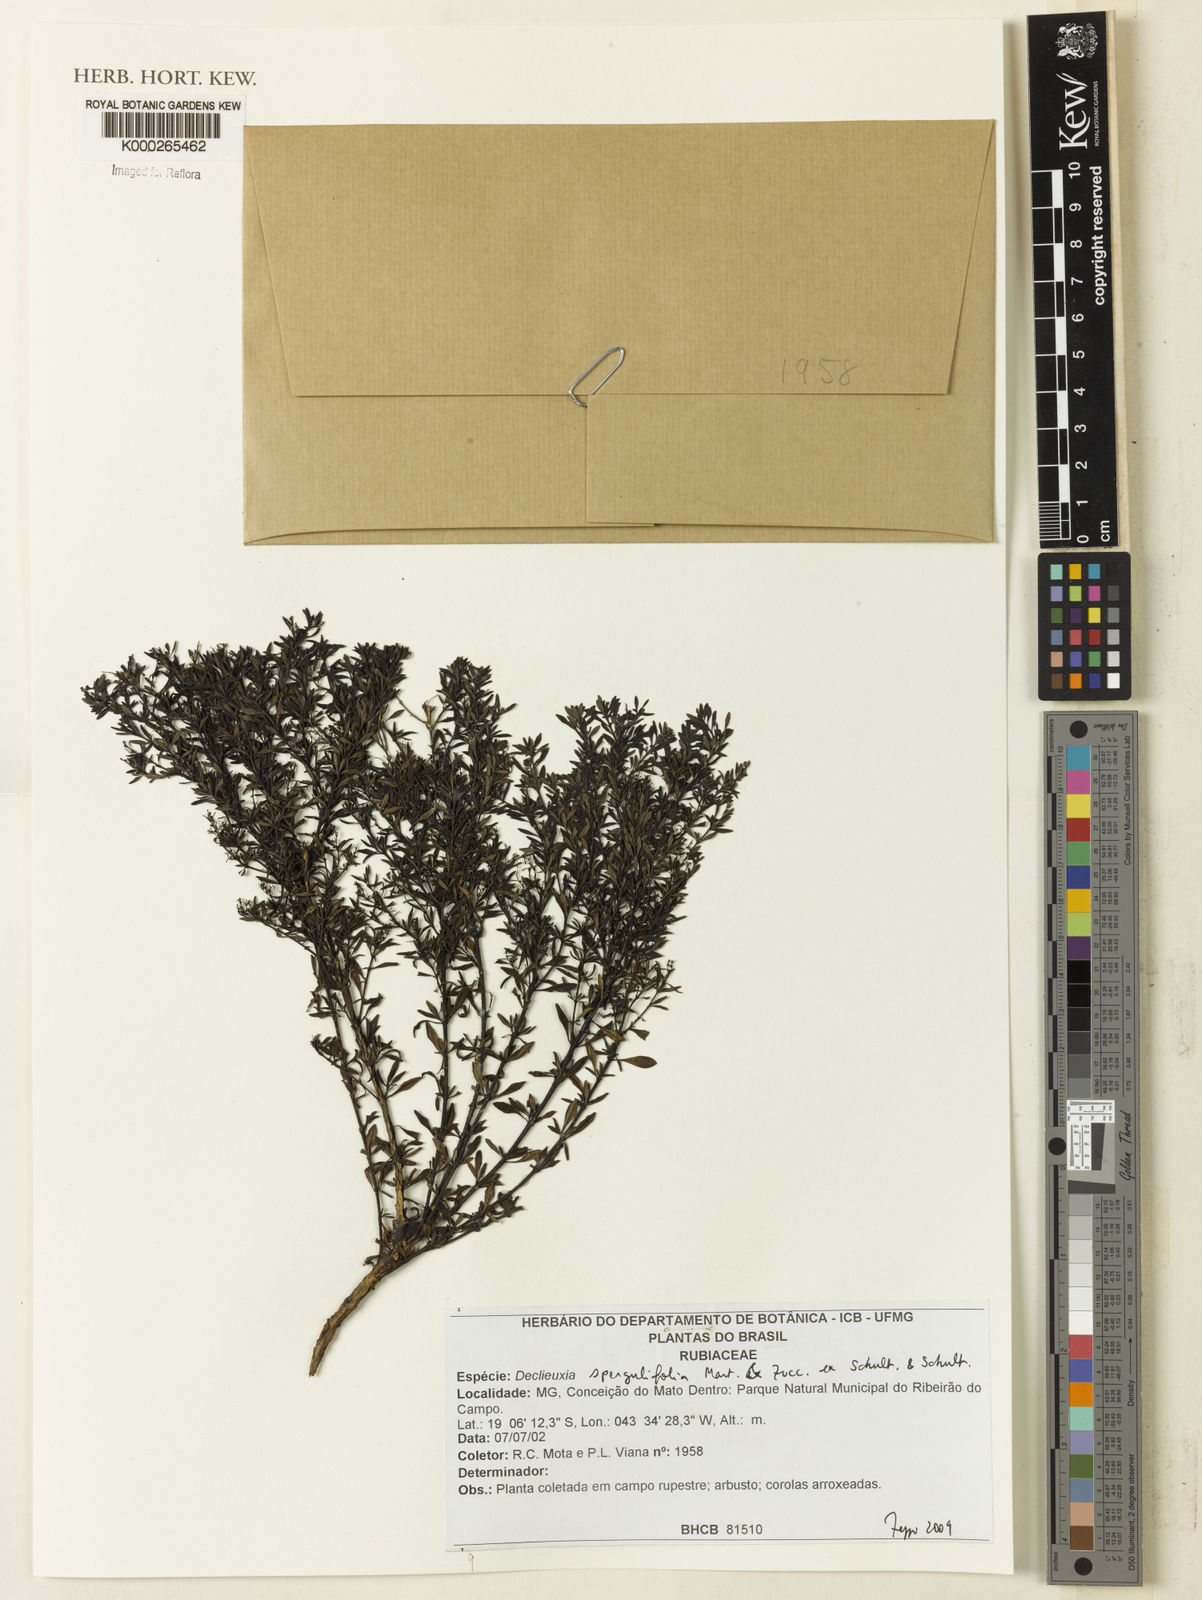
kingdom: Plantae
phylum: Tracheophyta
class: Magnoliopsida
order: Gentianales
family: Rubiaceae
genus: Declieuxia
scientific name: Declieuxia
